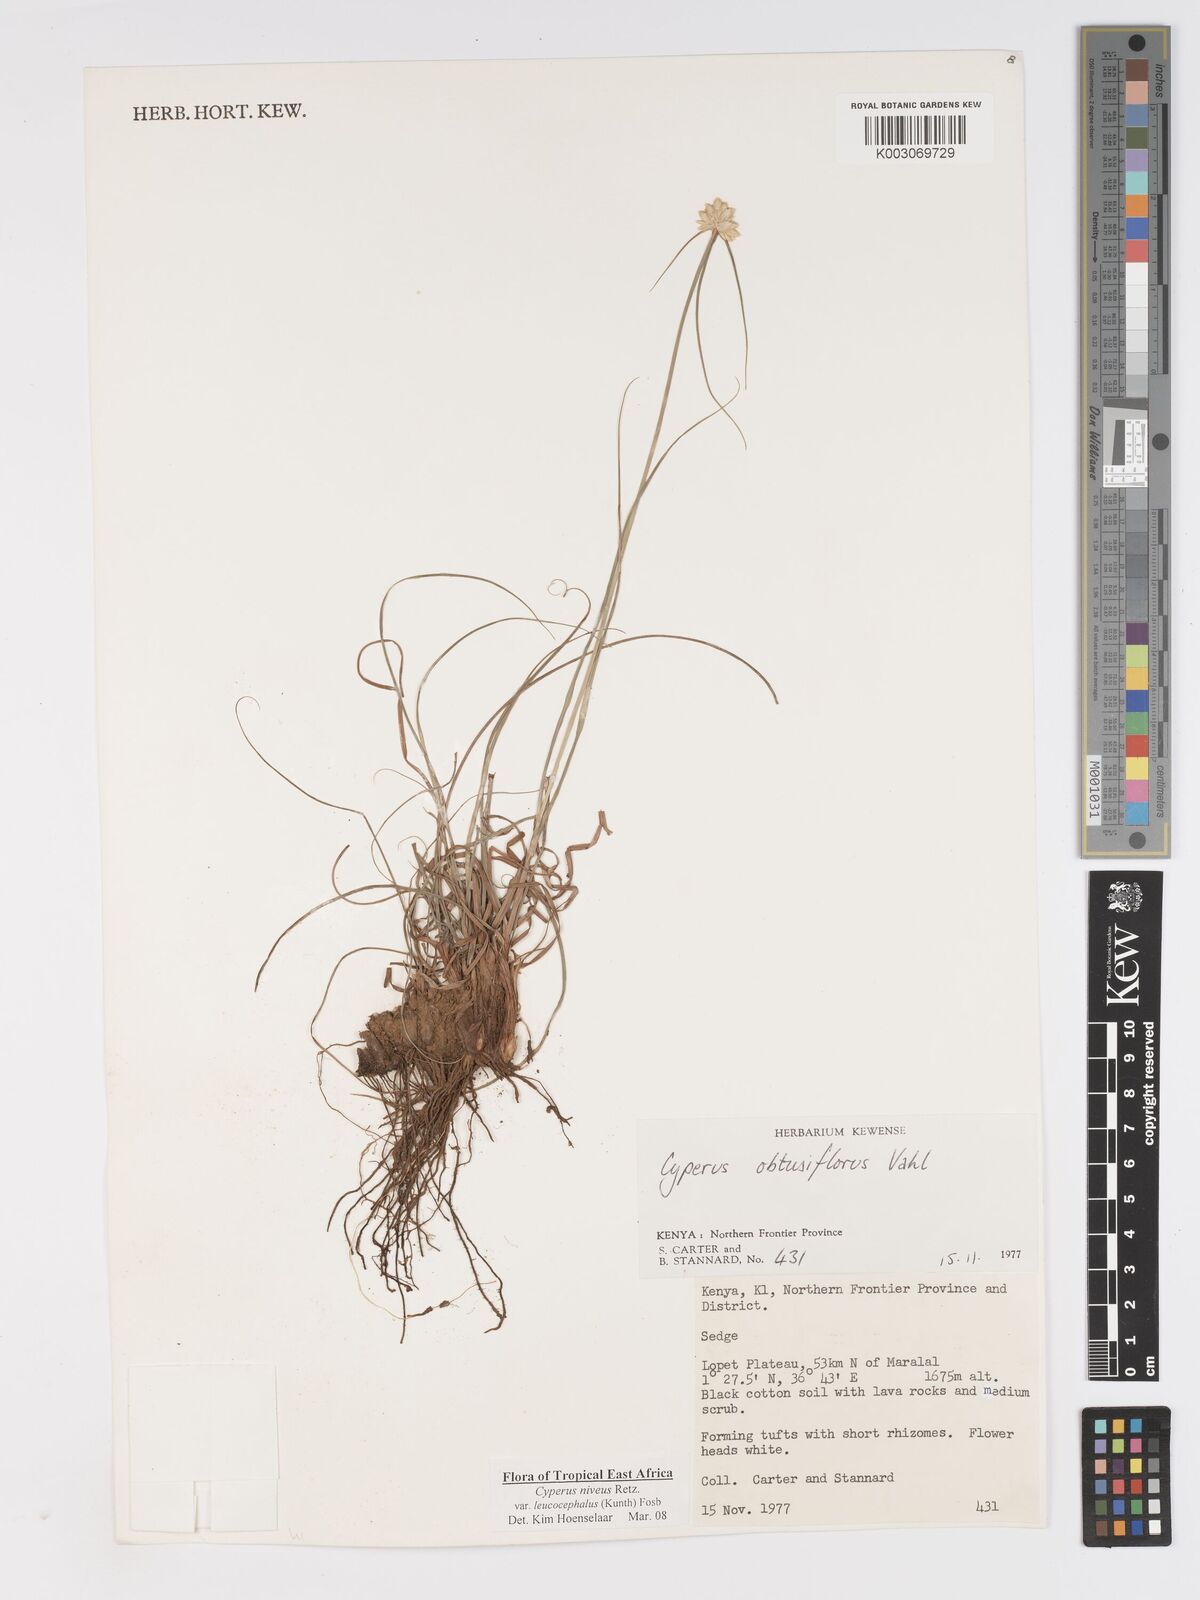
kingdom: Plantae
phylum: Tracheophyta
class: Liliopsida
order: Poales
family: Cyperaceae
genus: Cyperus
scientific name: Cyperus niveus
